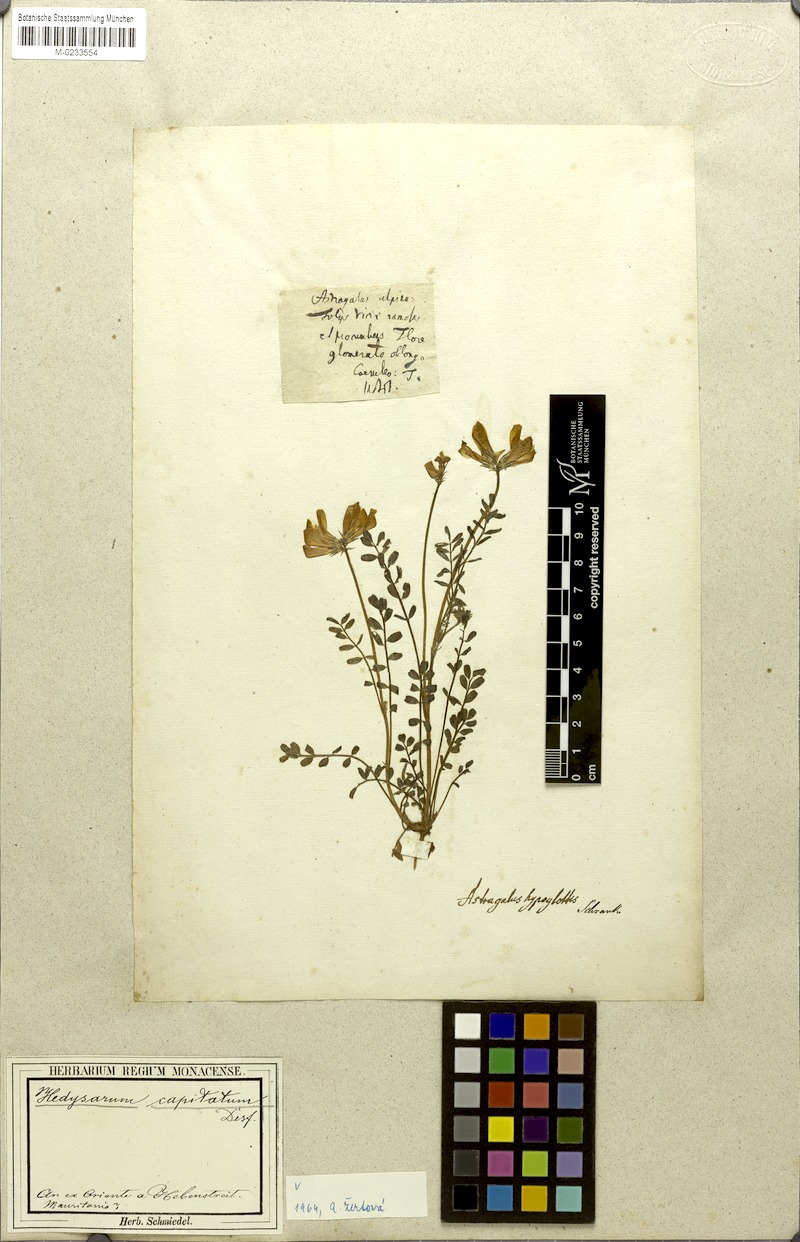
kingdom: Plantae
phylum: Tracheophyta
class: Magnoliopsida
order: Fabales
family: Fabaceae
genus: Sulla
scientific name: Sulla glomerata
